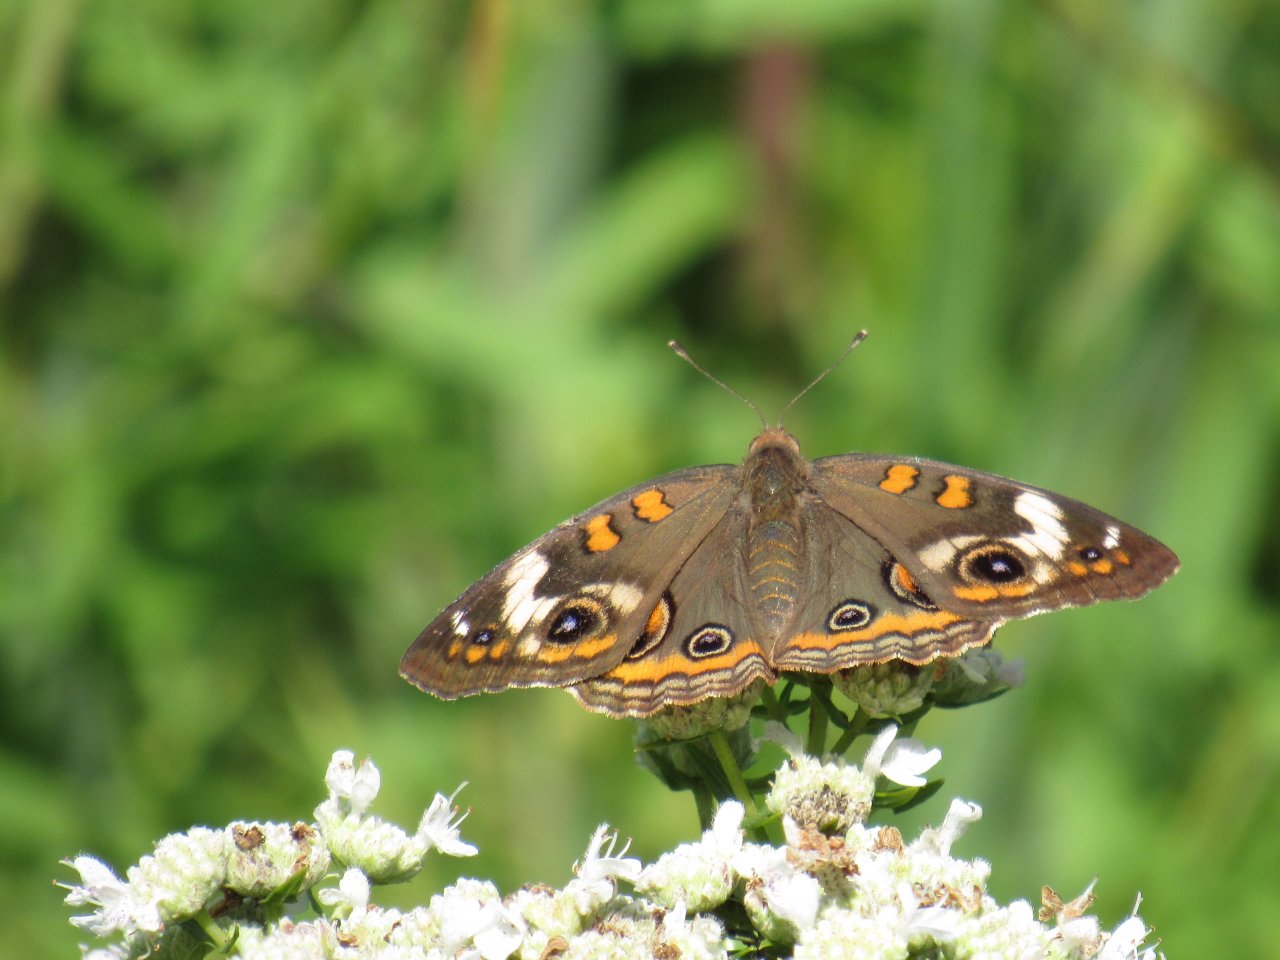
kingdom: Animalia
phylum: Arthropoda
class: Insecta
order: Lepidoptera
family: Nymphalidae
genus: Junonia
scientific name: Junonia coenia
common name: Common Buckeye
